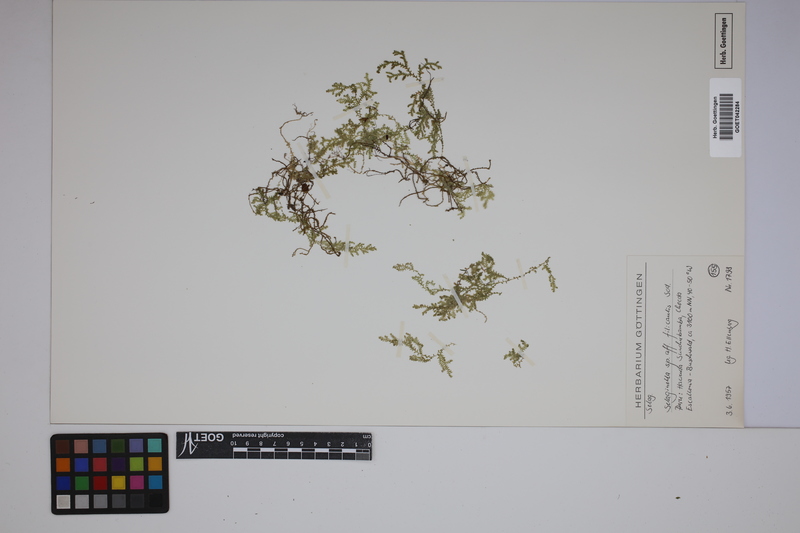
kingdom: Plantae
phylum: Tracheophyta
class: Lycopodiopsida
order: Selaginellales
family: Selaginellaceae
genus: Selaginella
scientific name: Selaginella filicaulis
